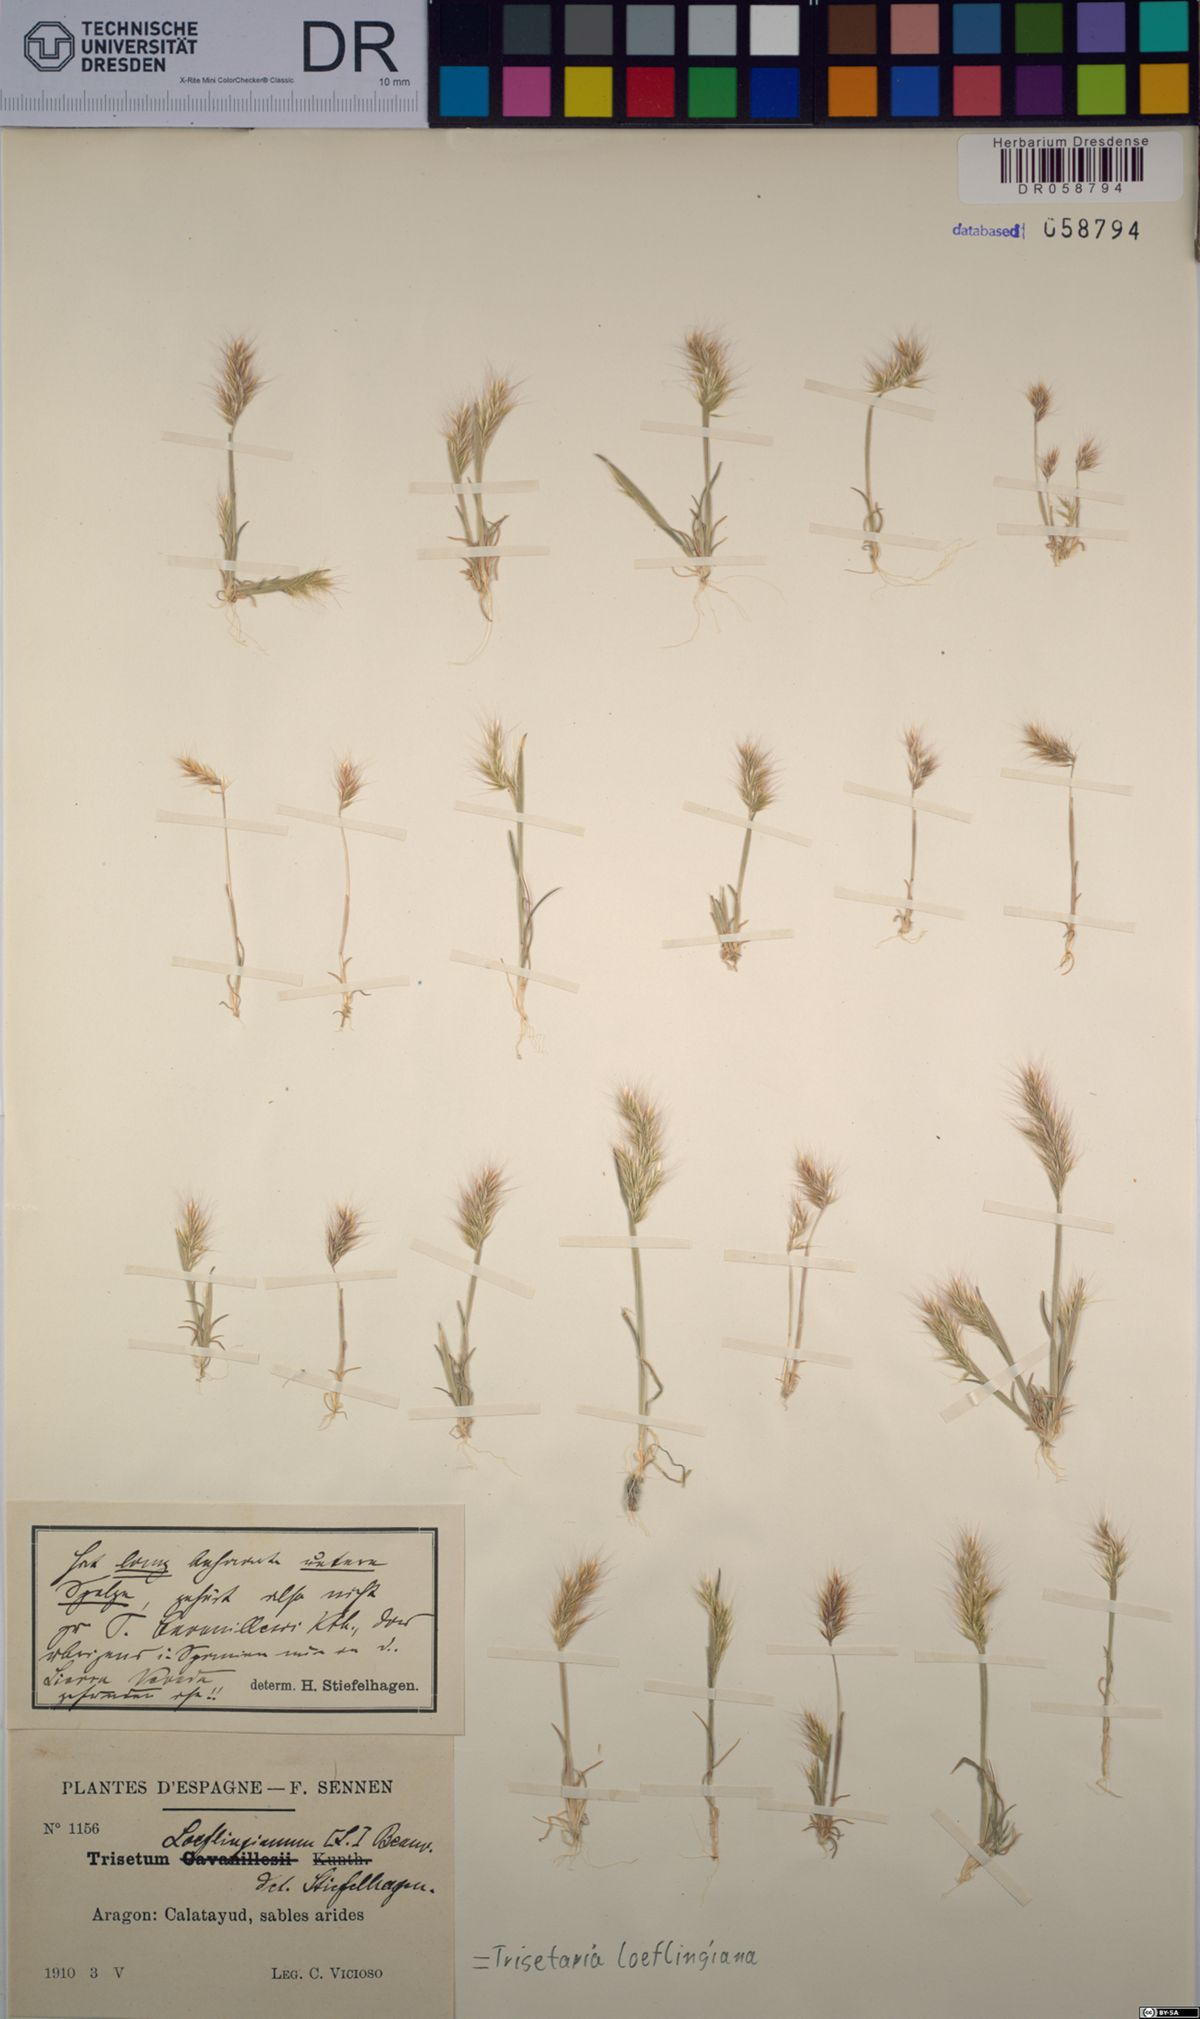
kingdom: Plantae
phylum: Tracheophyta
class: Liliopsida
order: Poales
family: Poaceae
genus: Trisetaria
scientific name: Trisetaria loeflingiana
